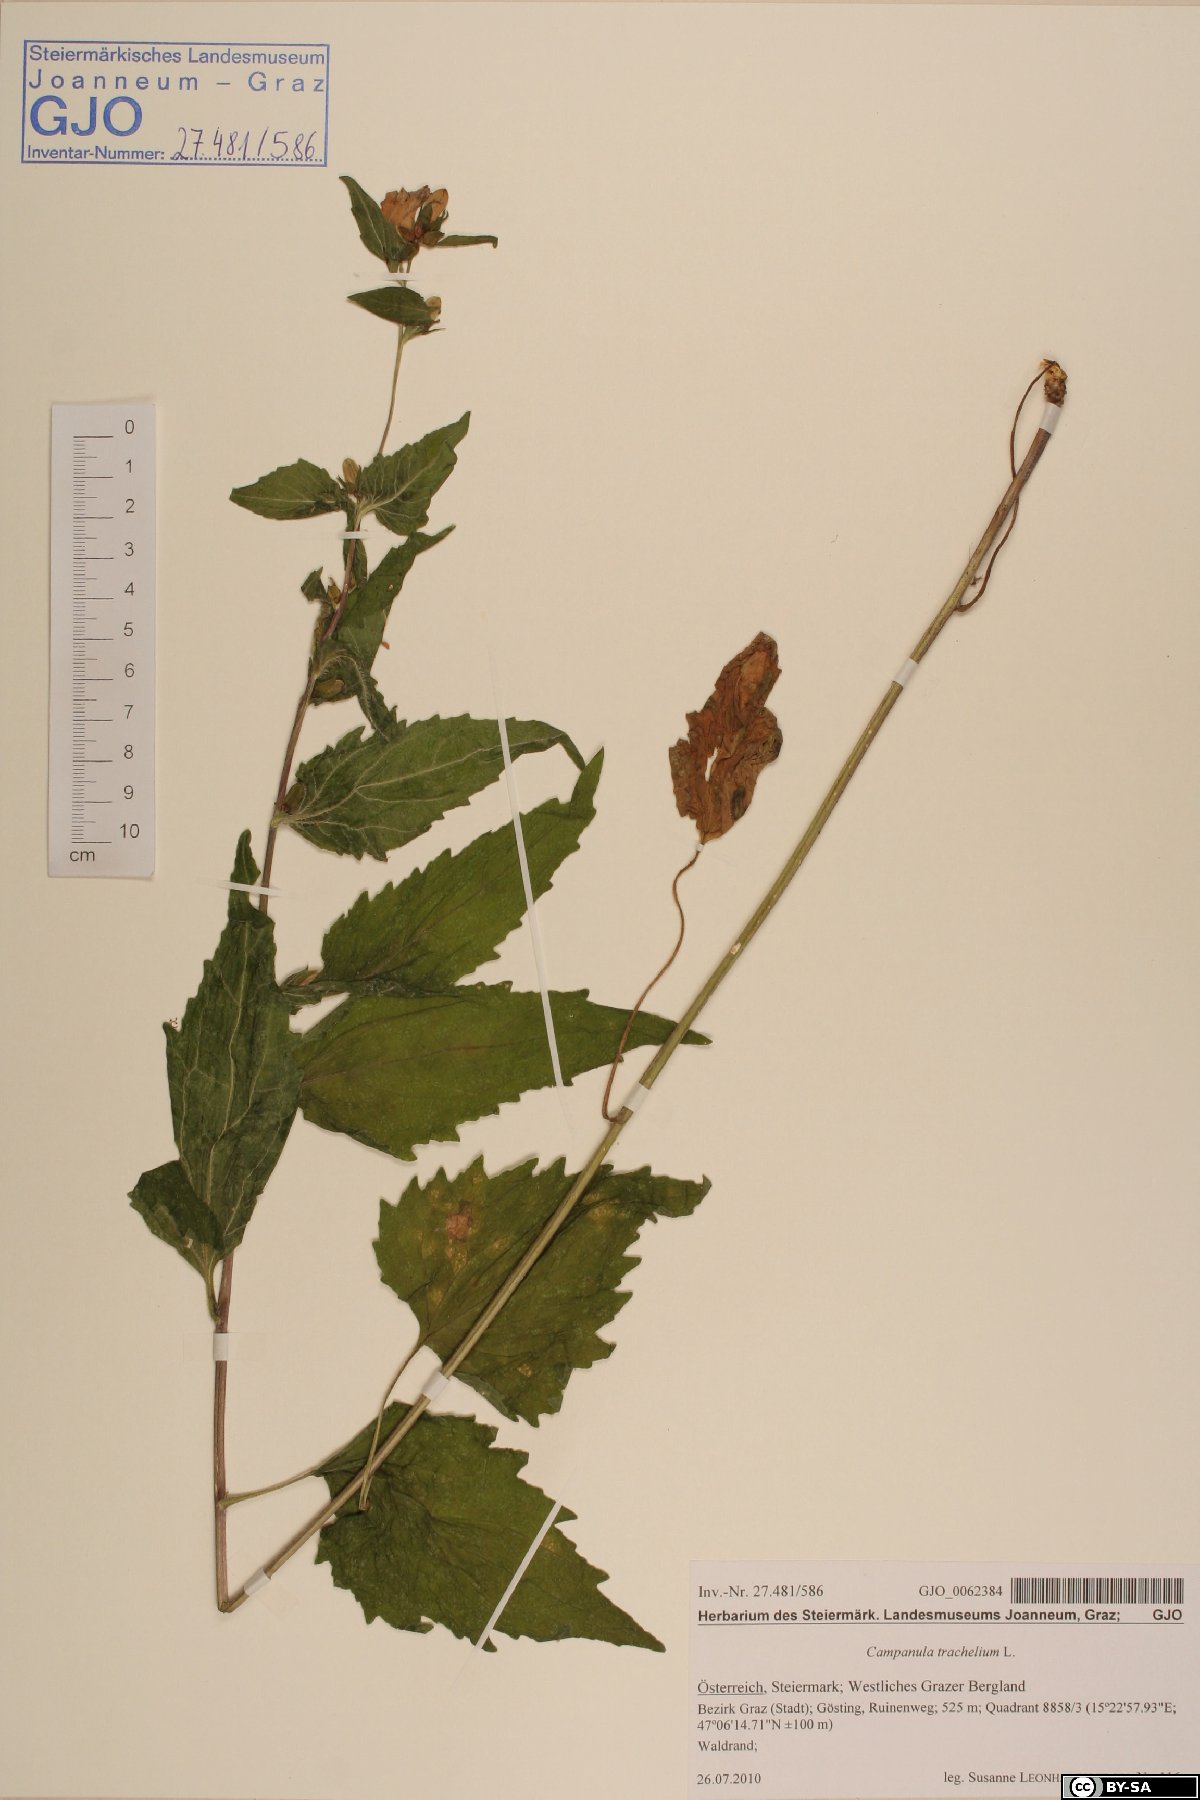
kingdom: Plantae
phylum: Tracheophyta
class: Magnoliopsida
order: Asterales
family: Campanulaceae
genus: Campanula
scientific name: Campanula trachelium
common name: Nettle-leaved bellflower
